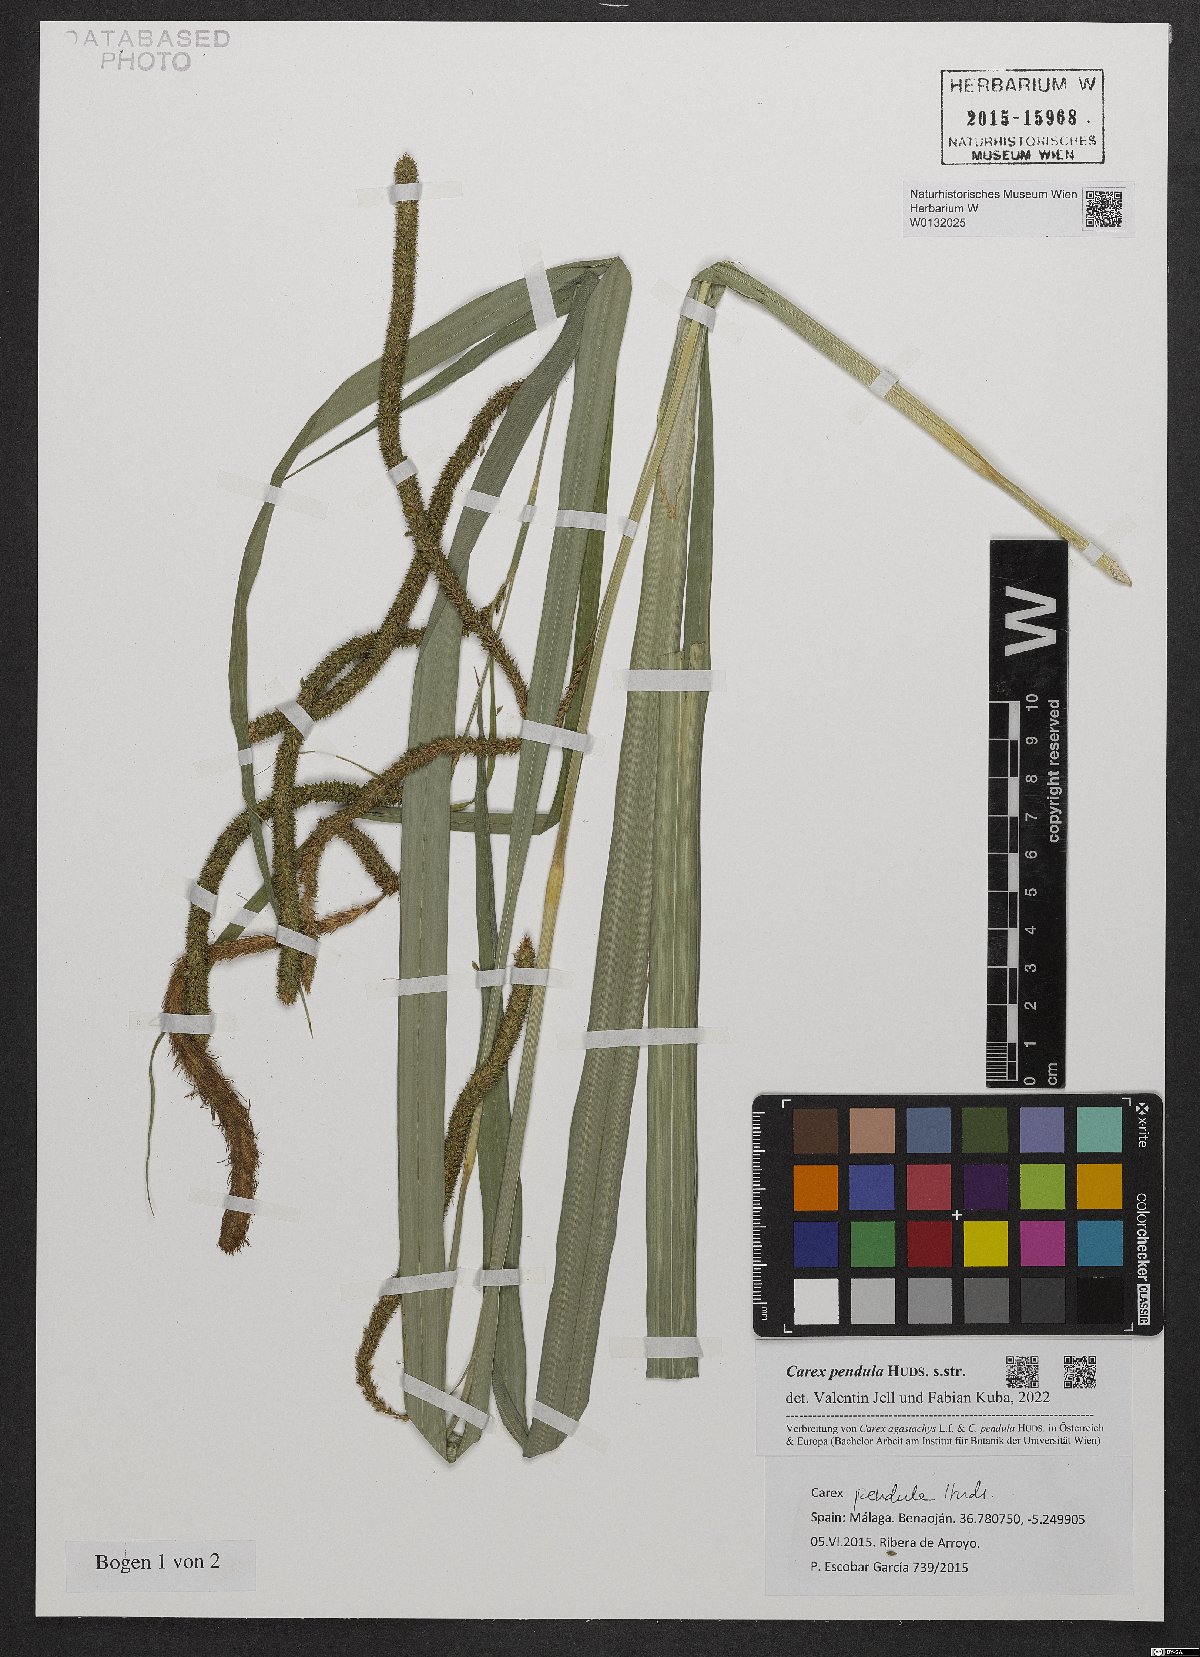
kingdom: Plantae
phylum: Tracheophyta
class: Liliopsida
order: Poales
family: Cyperaceae
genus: Carex
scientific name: Carex pendula
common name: Pendulous sedge
